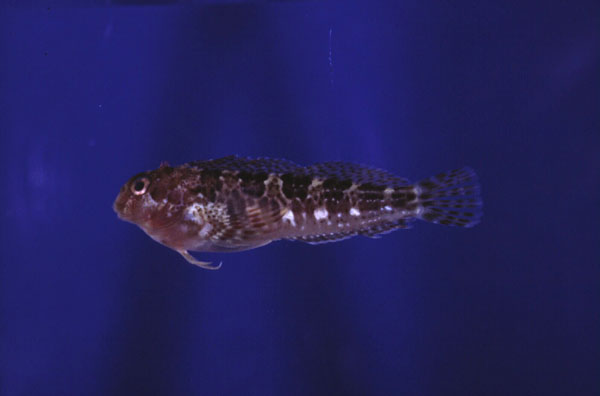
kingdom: Animalia
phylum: Chordata
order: Perciformes
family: Blenniidae
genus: Scartella
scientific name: Scartella emarginata
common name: Maned blenny
